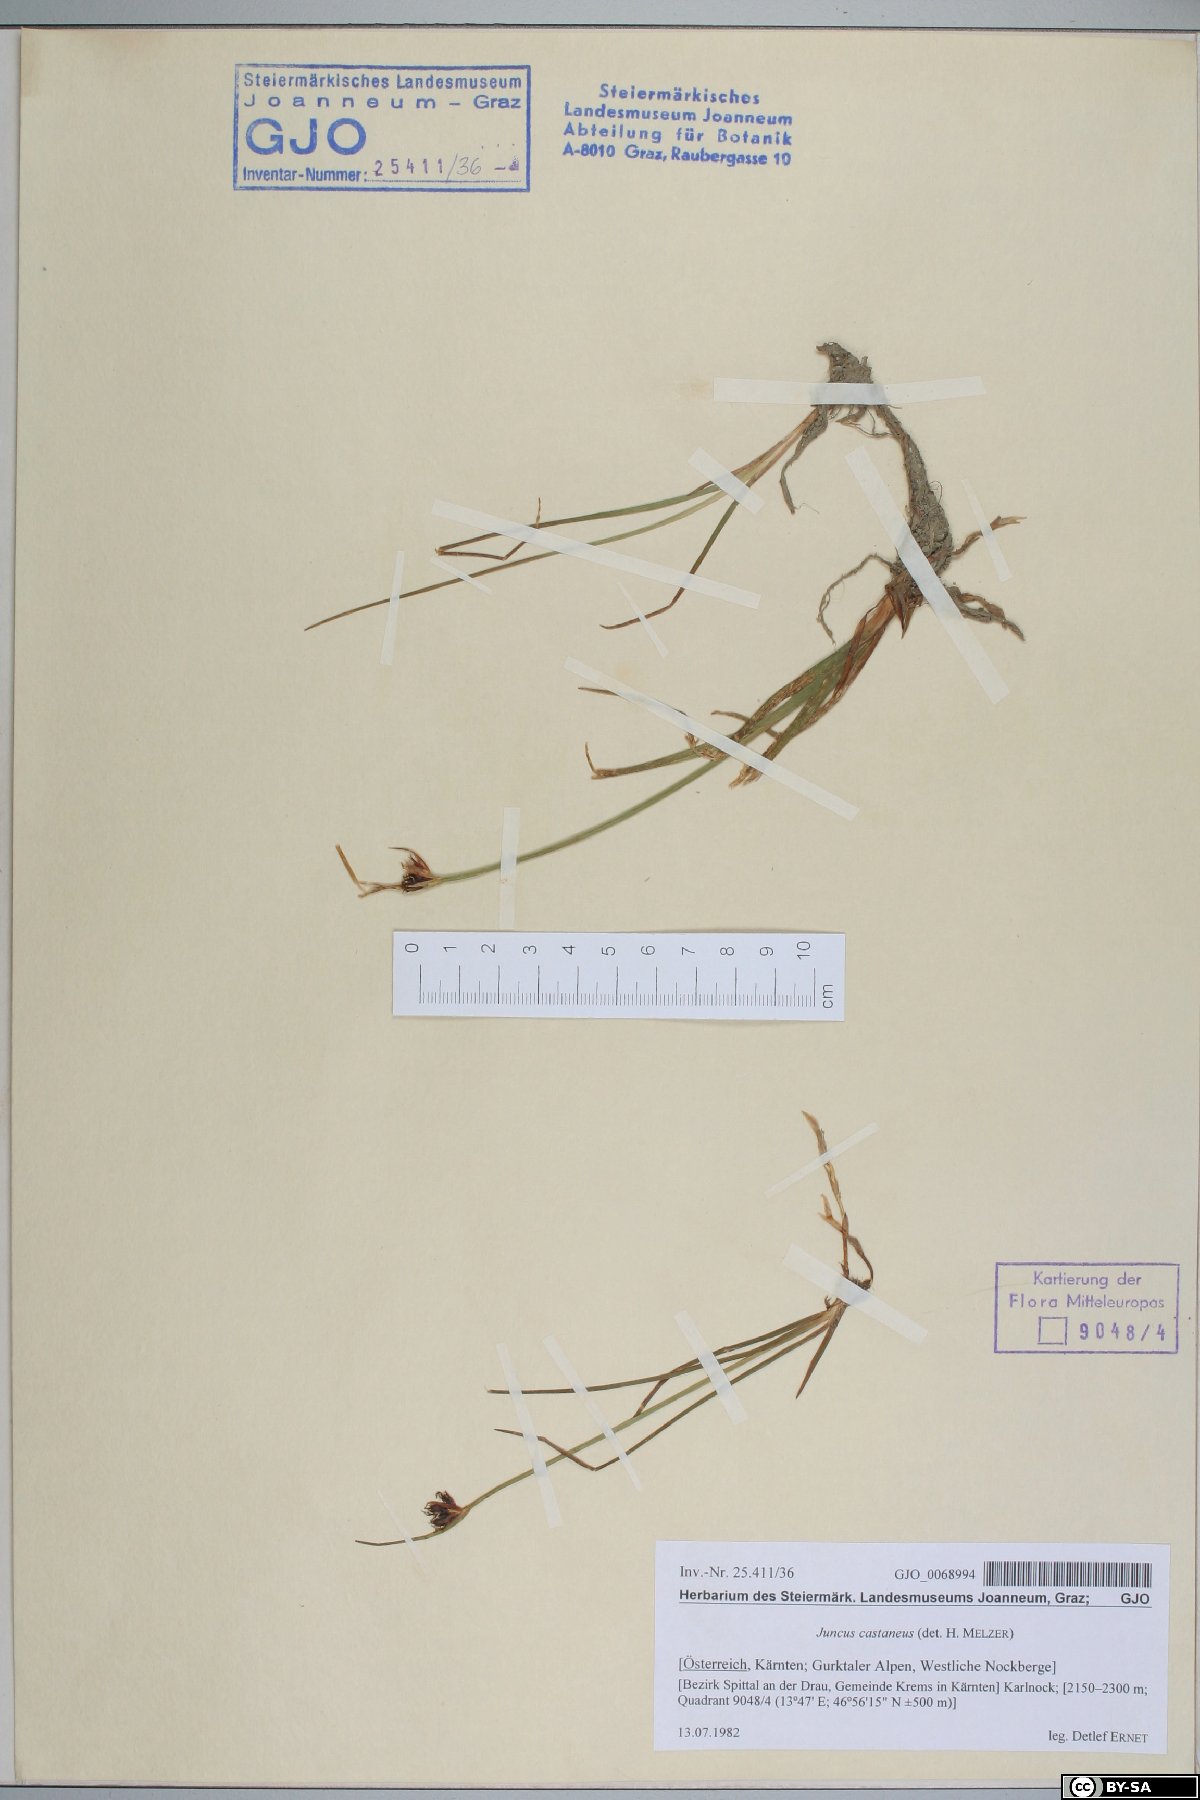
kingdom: Plantae
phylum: Tracheophyta
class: Liliopsida
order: Poales
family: Juncaceae
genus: Juncus
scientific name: Juncus castaneus
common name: Chestnut rush
